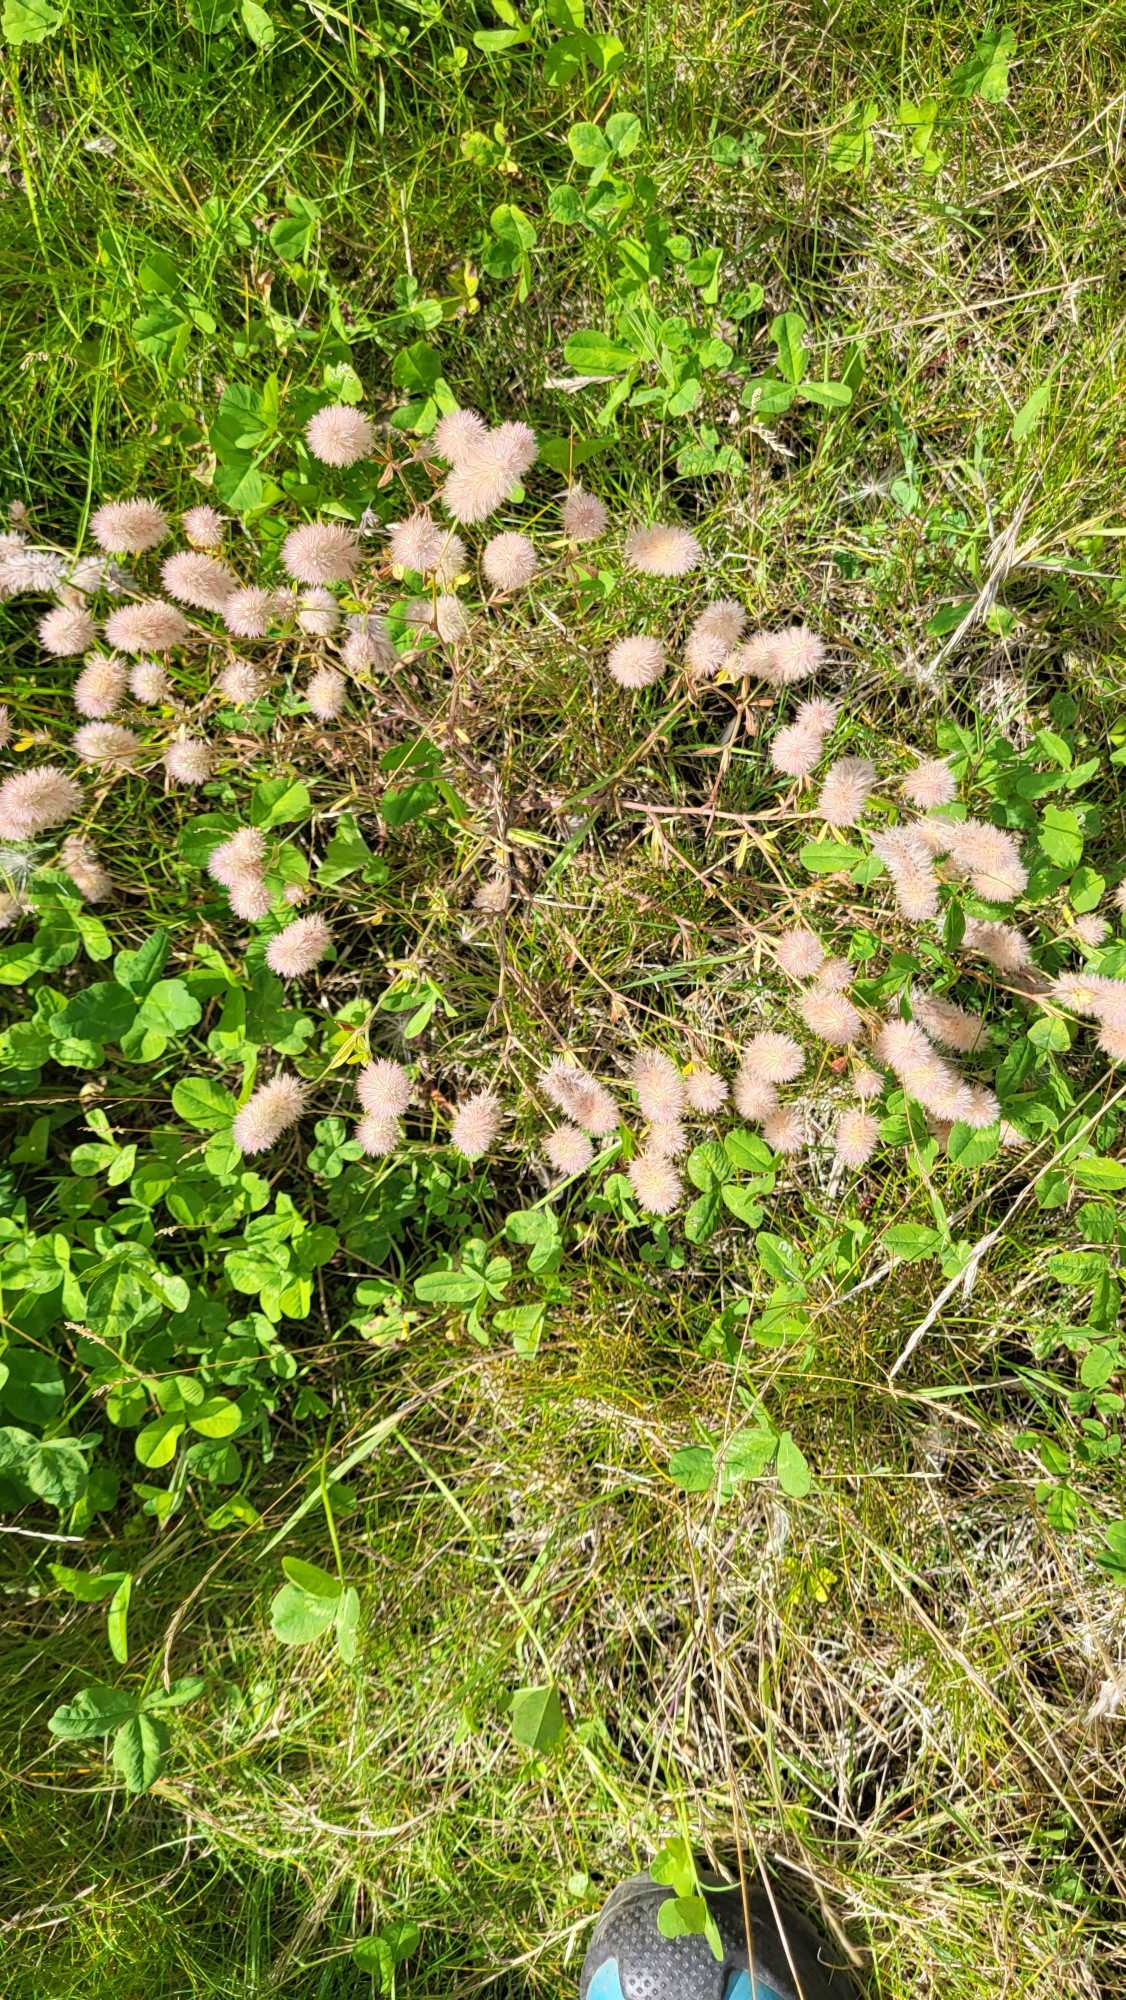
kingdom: Plantae
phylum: Tracheophyta
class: Magnoliopsida
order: Fabales
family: Fabaceae
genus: Trifolium
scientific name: Trifolium arvense
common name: Hare-kløver
